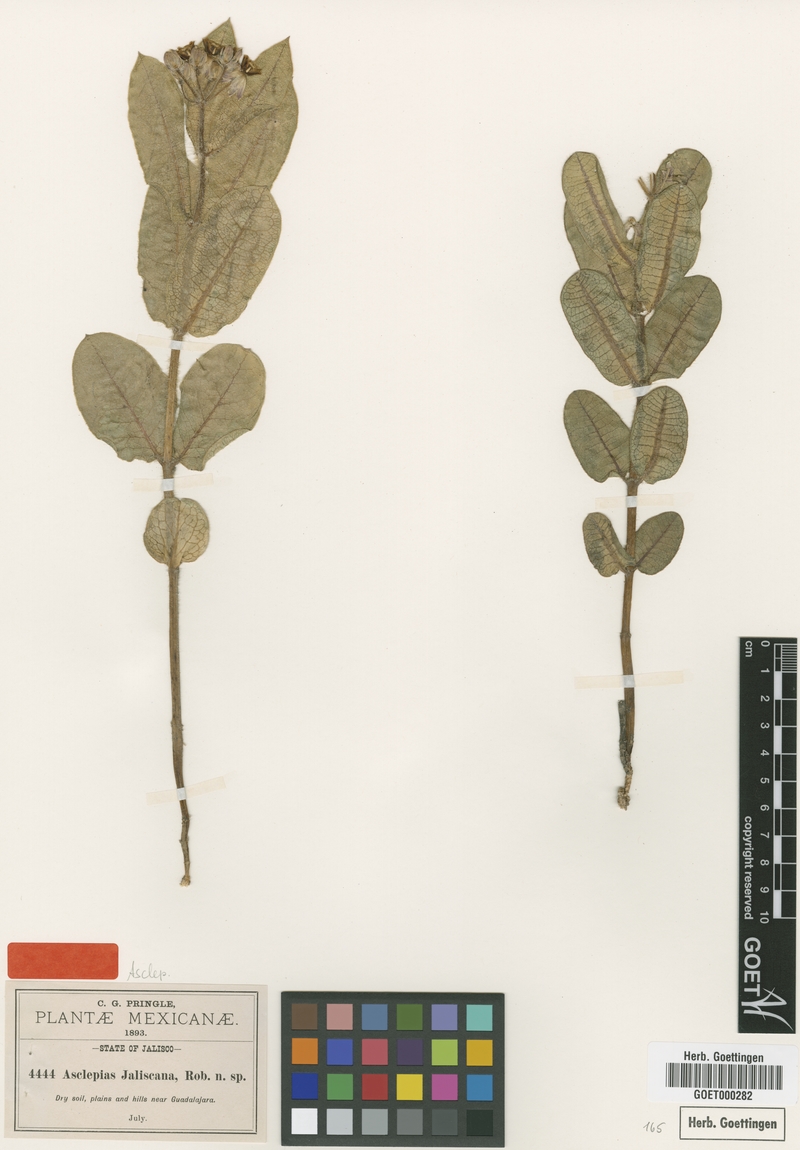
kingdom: Plantae
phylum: Tracheophyta
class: Magnoliopsida
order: Gentianales
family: Apocynaceae
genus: Asclepias
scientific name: Asclepias jaliscana
